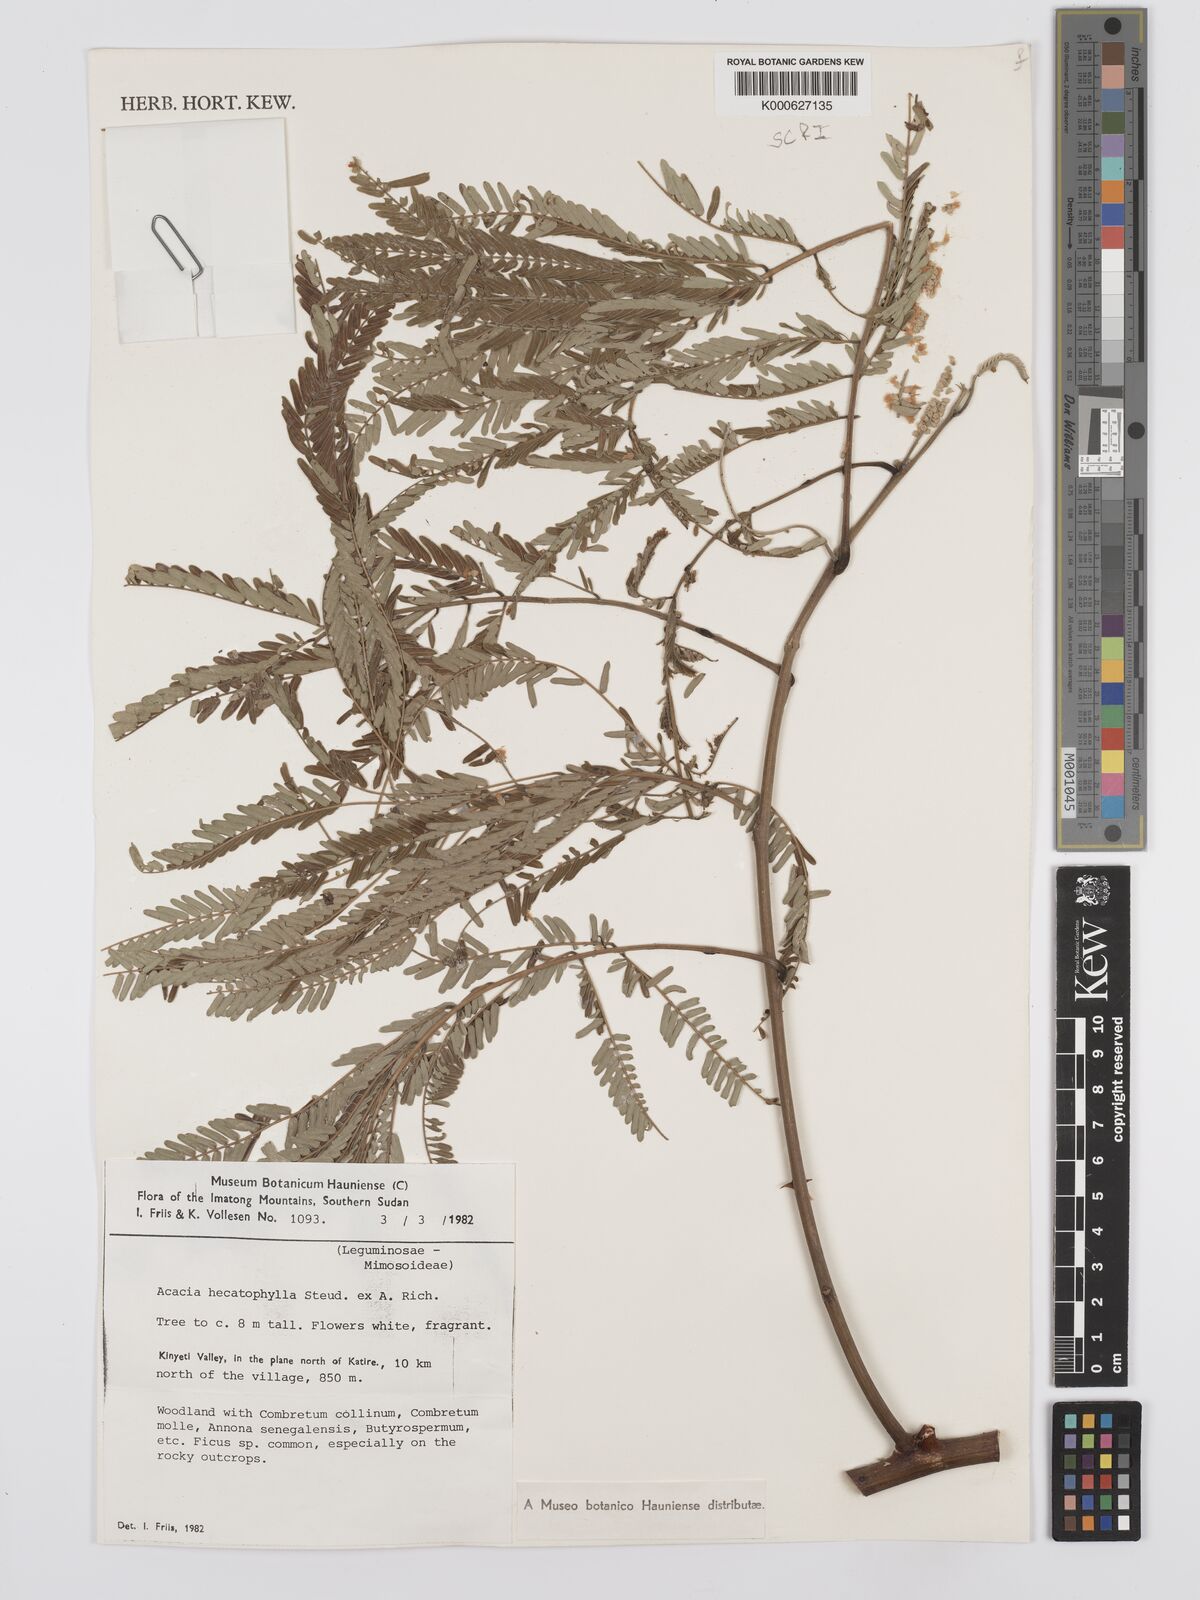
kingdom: Plantae
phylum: Tracheophyta
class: Magnoliopsida
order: Fabales
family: Fabaceae
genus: Senegalia
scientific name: Senegalia hecatophylla
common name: Long pod
